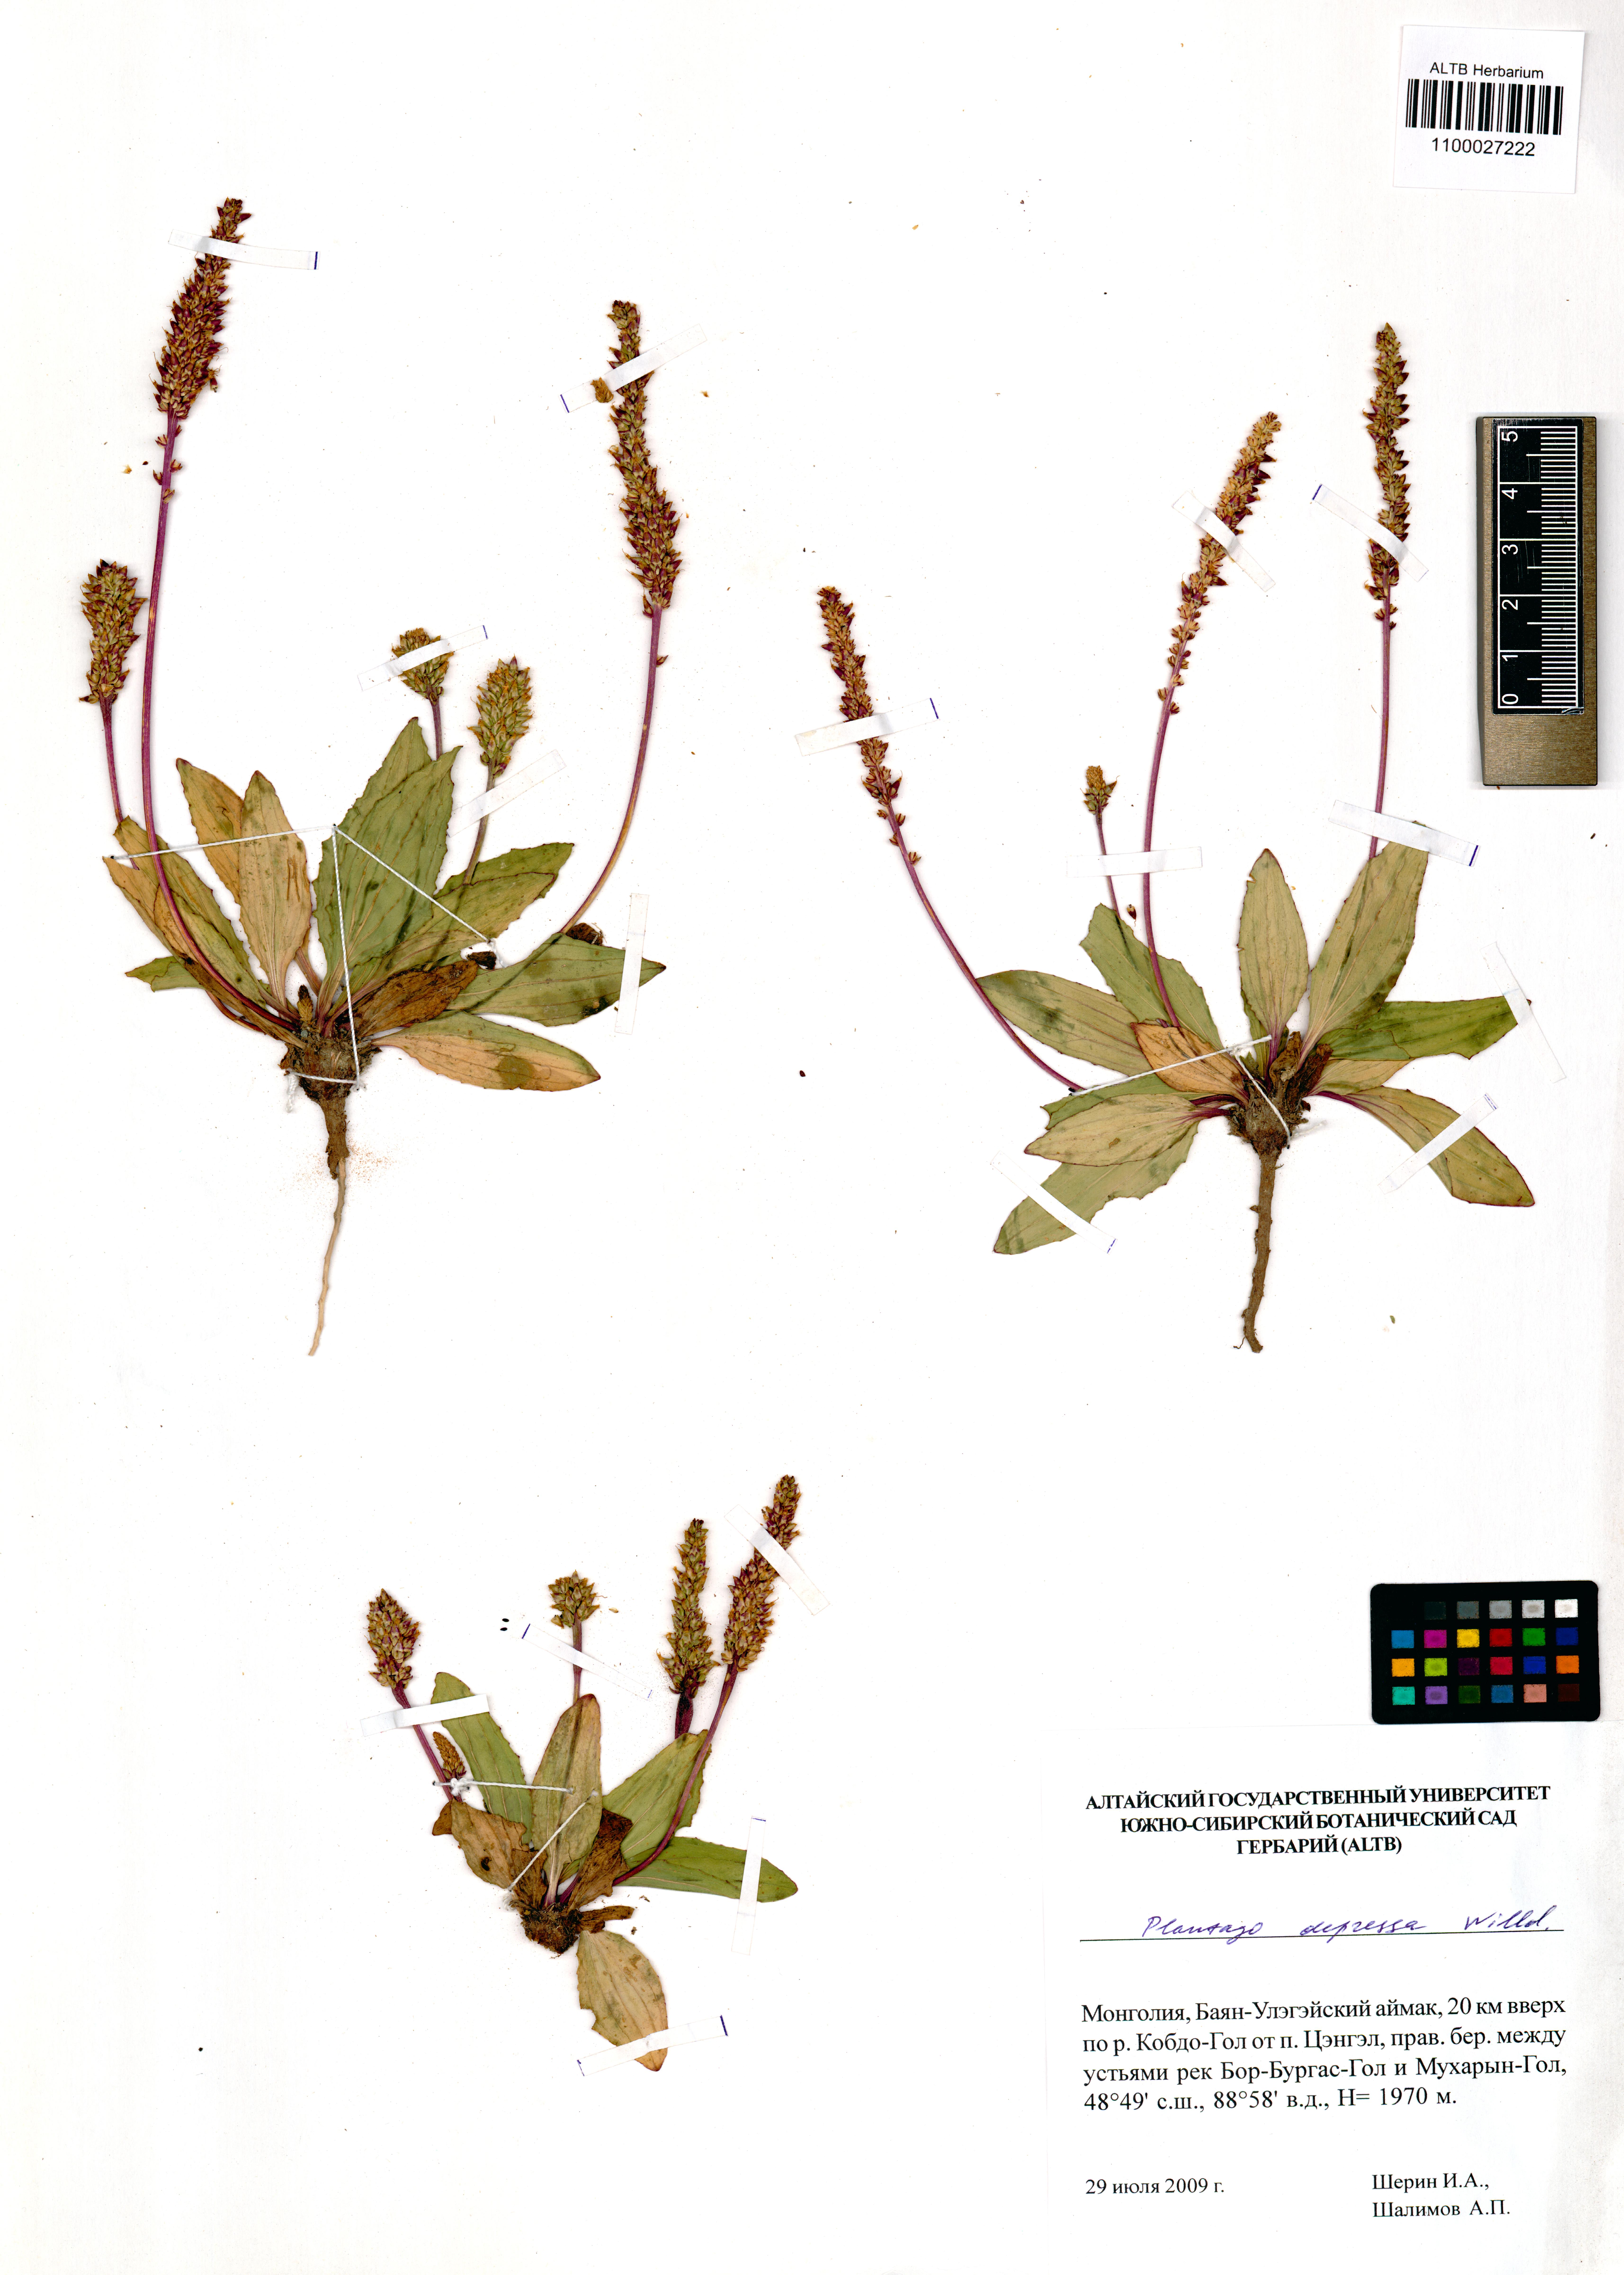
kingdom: Plantae
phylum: Tracheophyta
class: Magnoliopsida
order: Lamiales
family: Plantaginaceae
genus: Plantago
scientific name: Plantago depressa
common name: Depressed plantain
